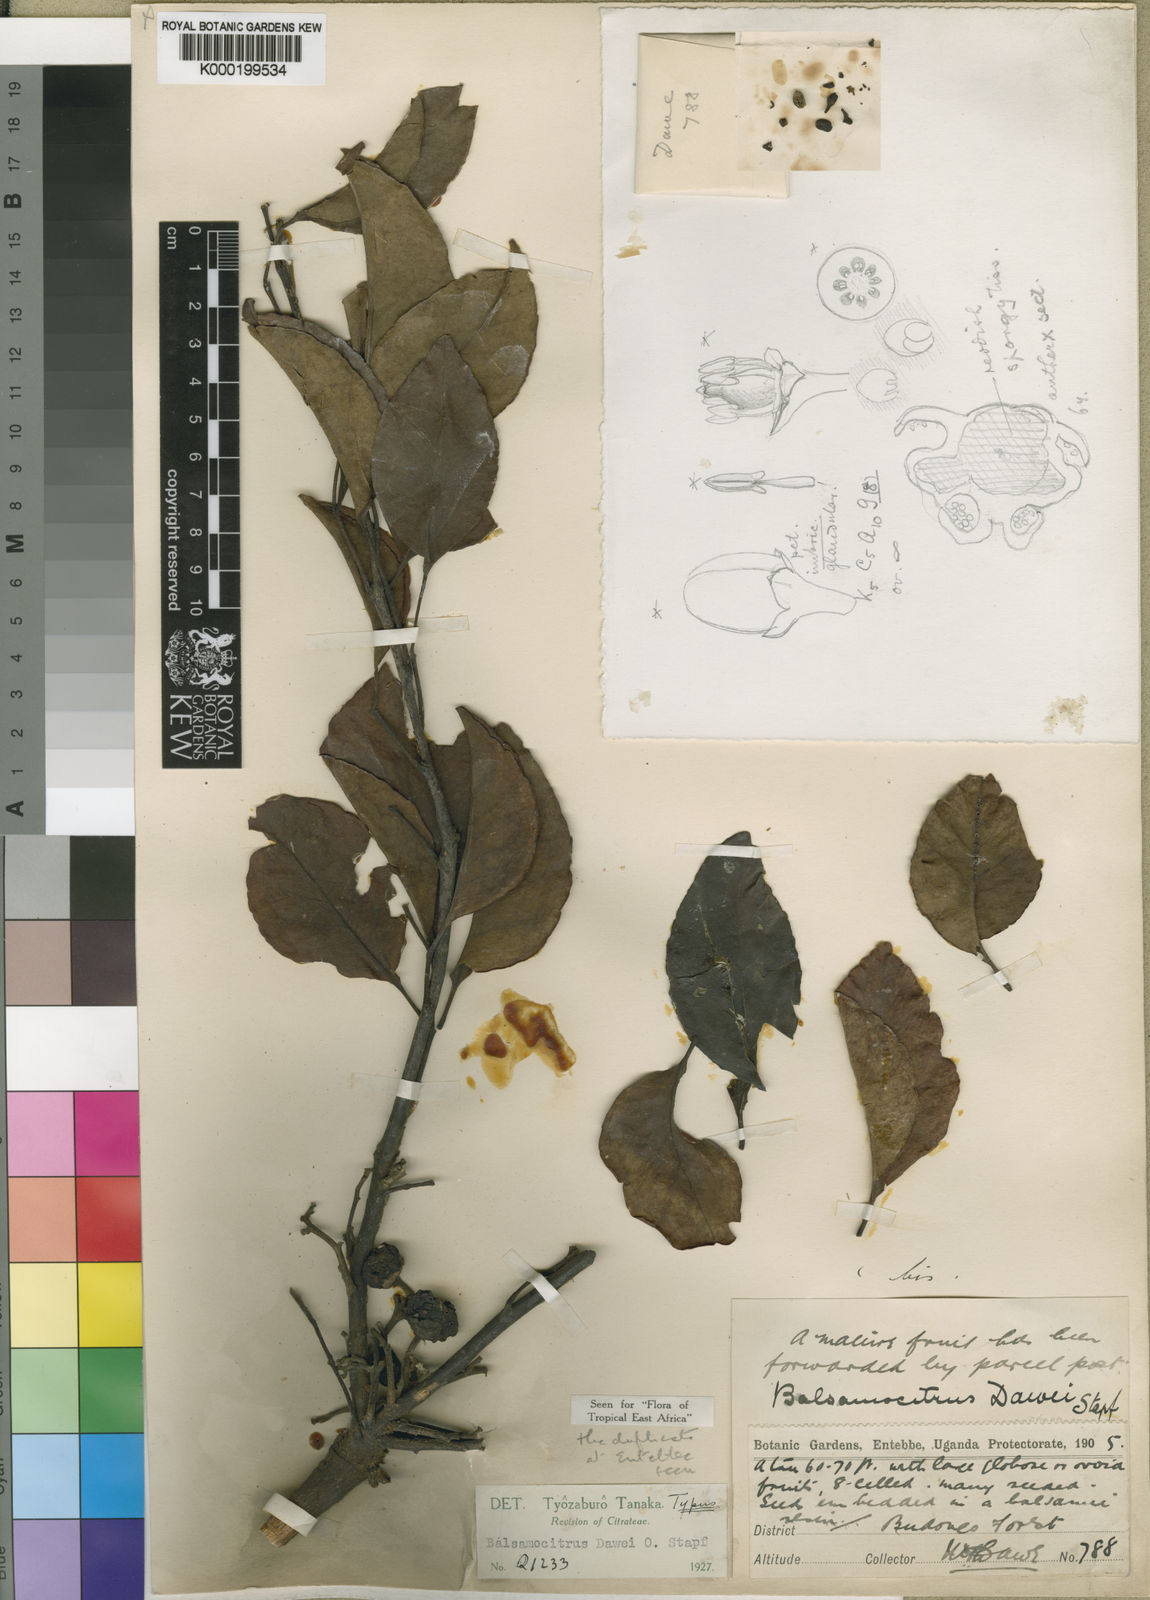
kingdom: Plantae
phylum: Tracheophyta
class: Magnoliopsida
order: Sapindales
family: Rutaceae
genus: Balsamocitrus
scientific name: Balsamocitrus dawei
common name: Uganda powder-flask-fruit
